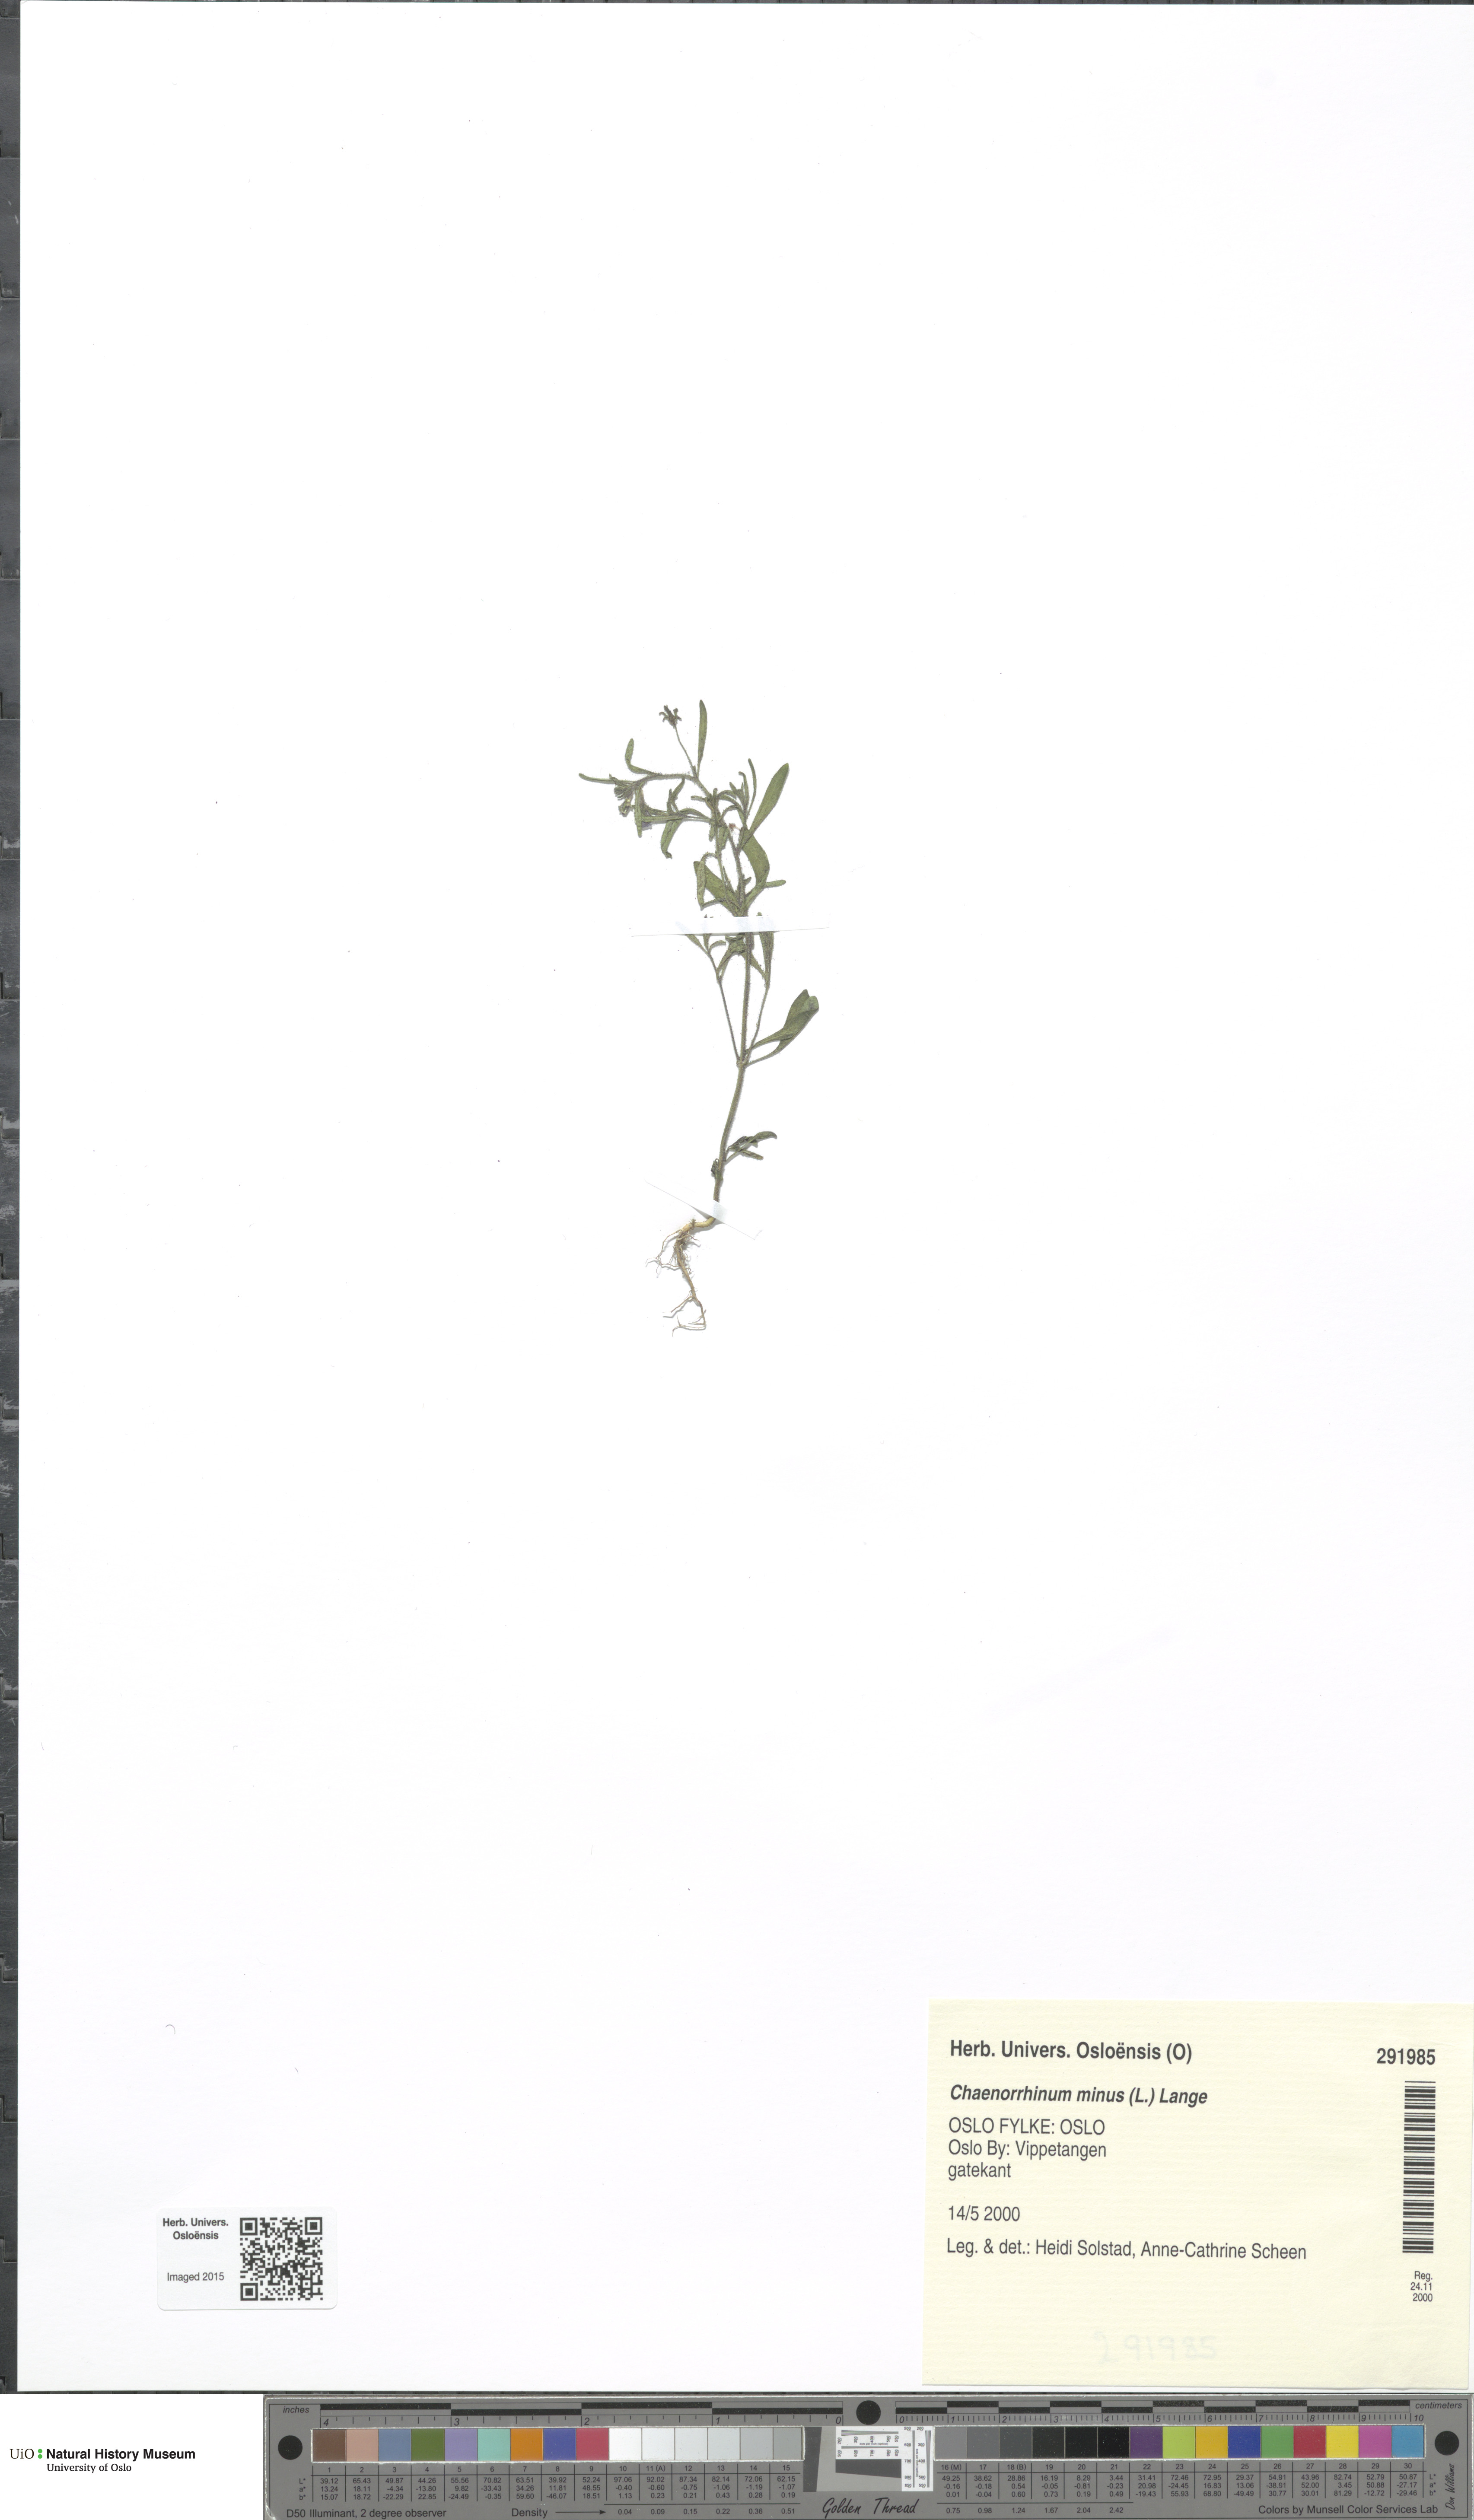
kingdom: Plantae
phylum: Tracheophyta
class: Magnoliopsida
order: Lamiales
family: Plantaginaceae
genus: Chaenorhinum
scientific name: Chaenorhinum minus
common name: Dwarf snapdragon
